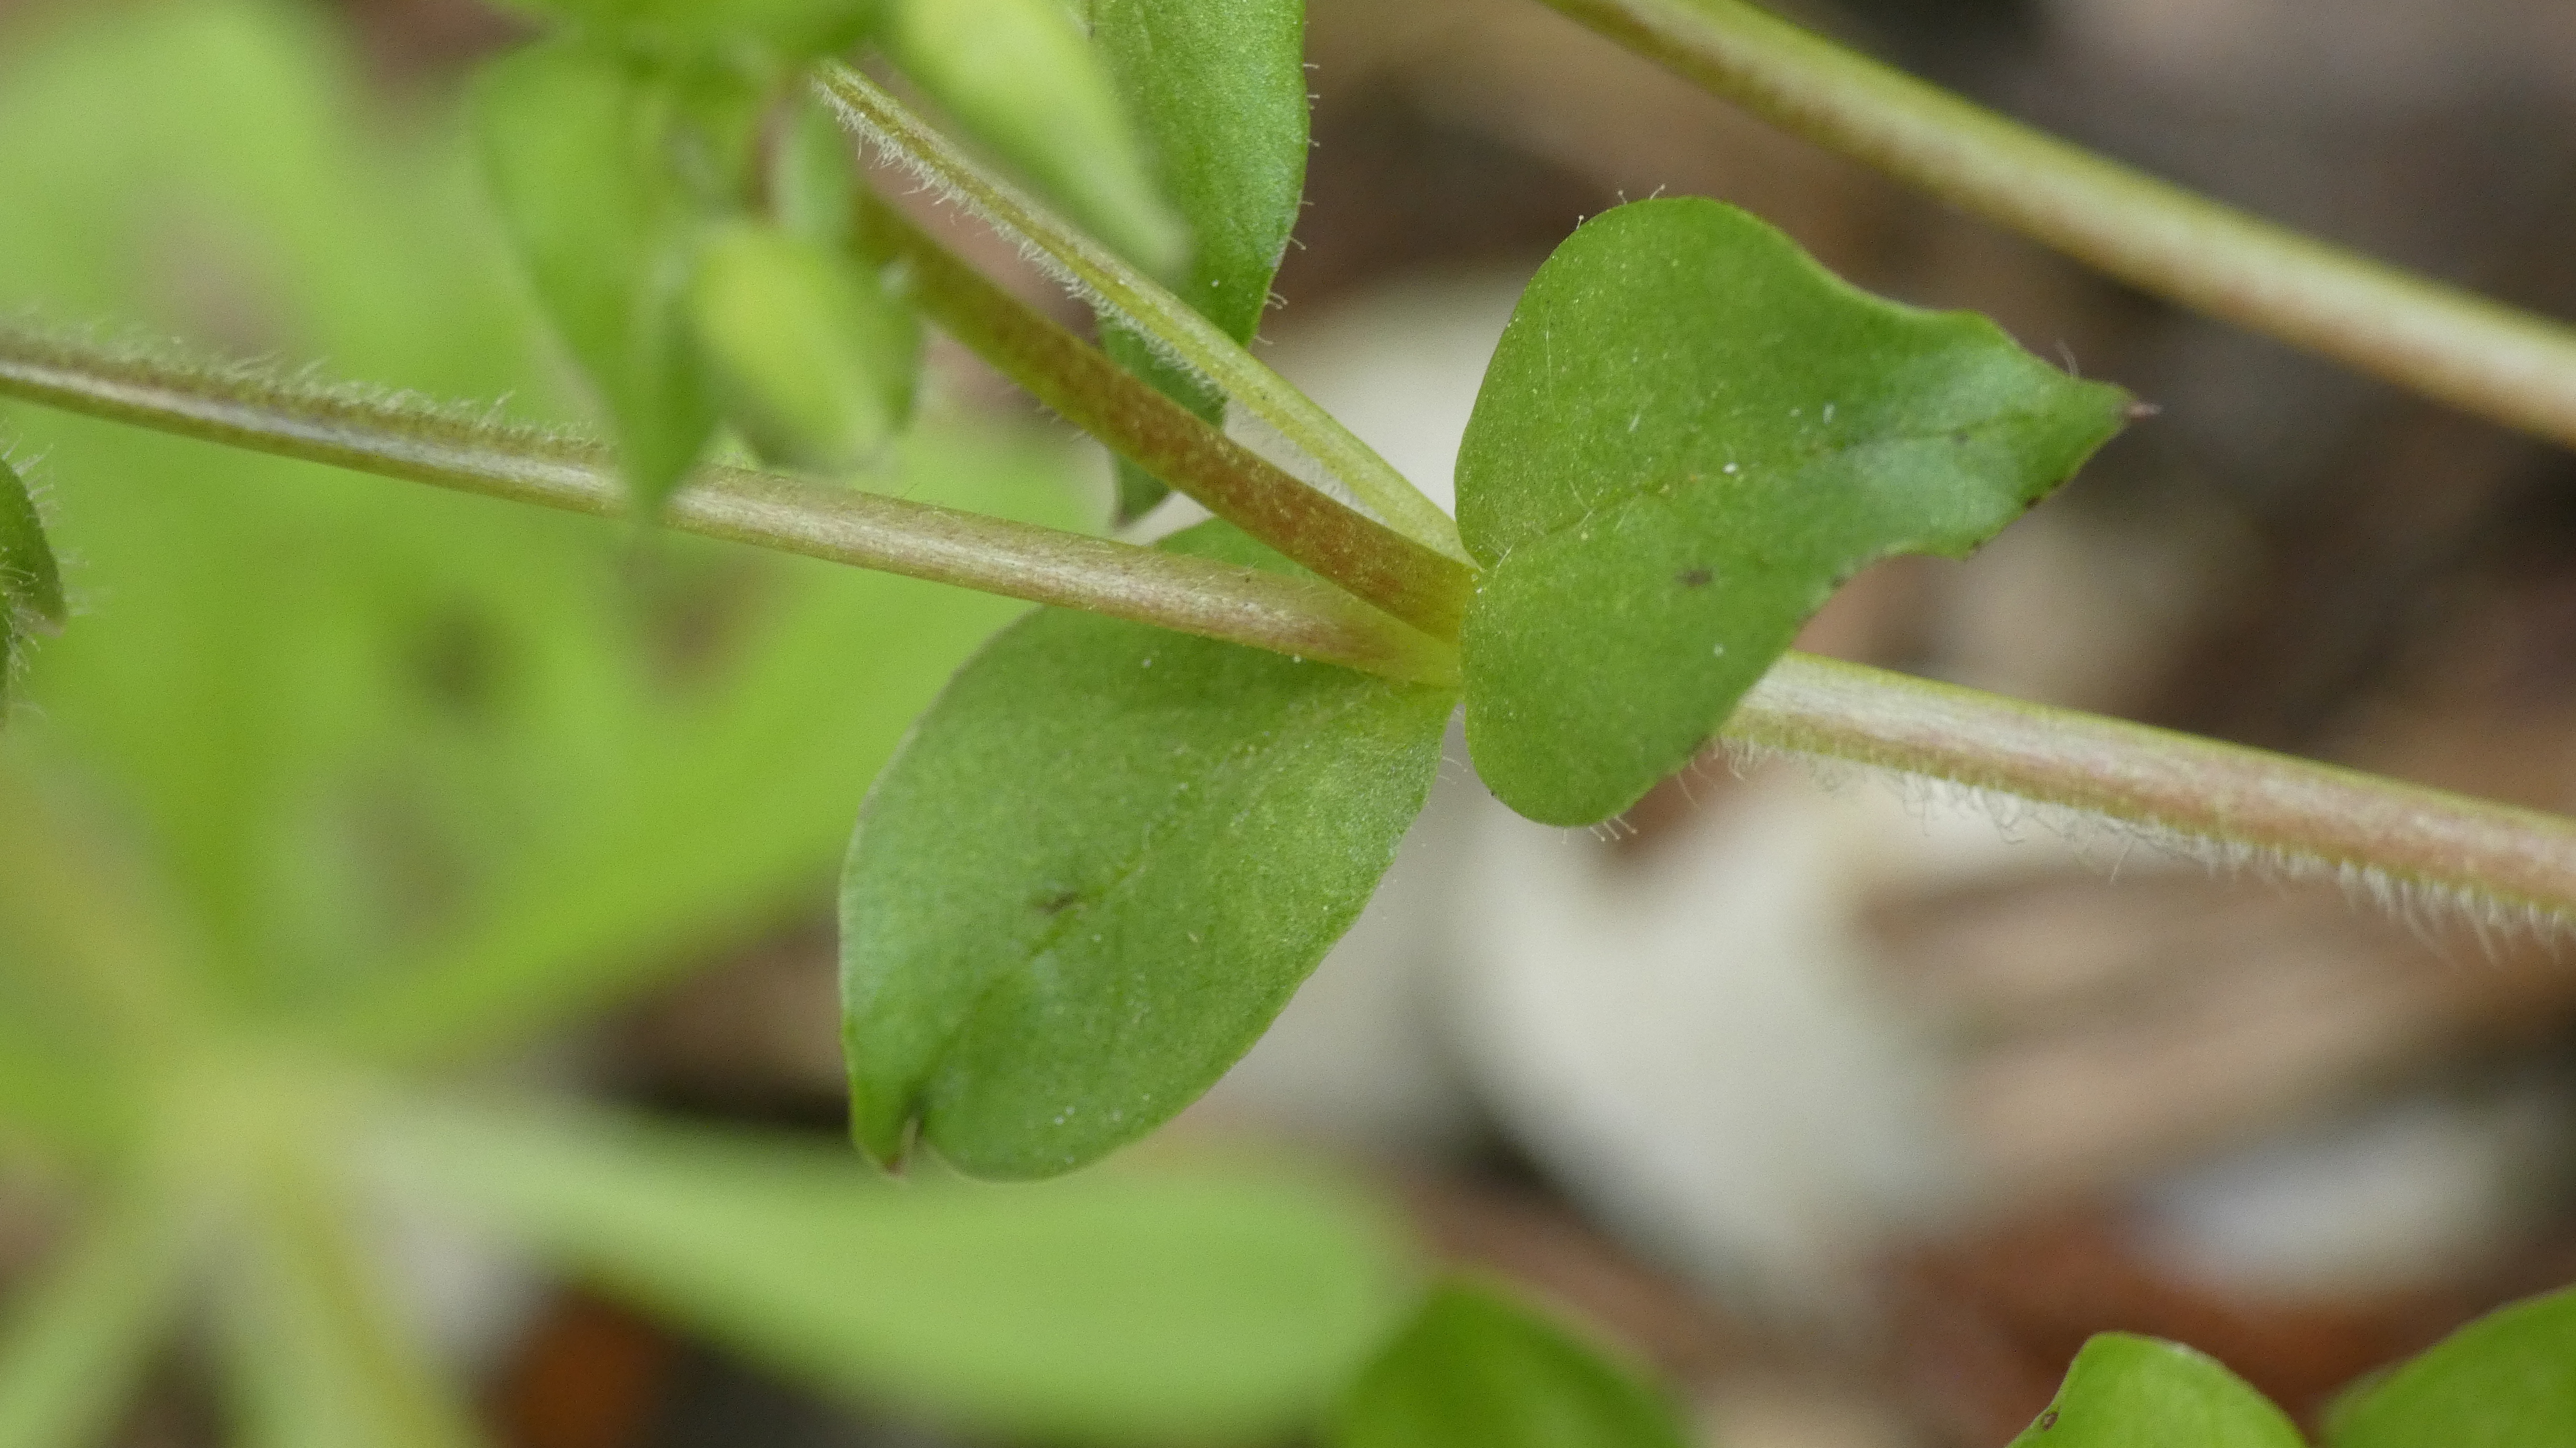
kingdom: Plantae
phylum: Tracheophyta
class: Magnoliopsida
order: Caryophyllales
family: Caryophyllaceae
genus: Stellaria
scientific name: Stellaria media
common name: Almindelig fuglegræs
